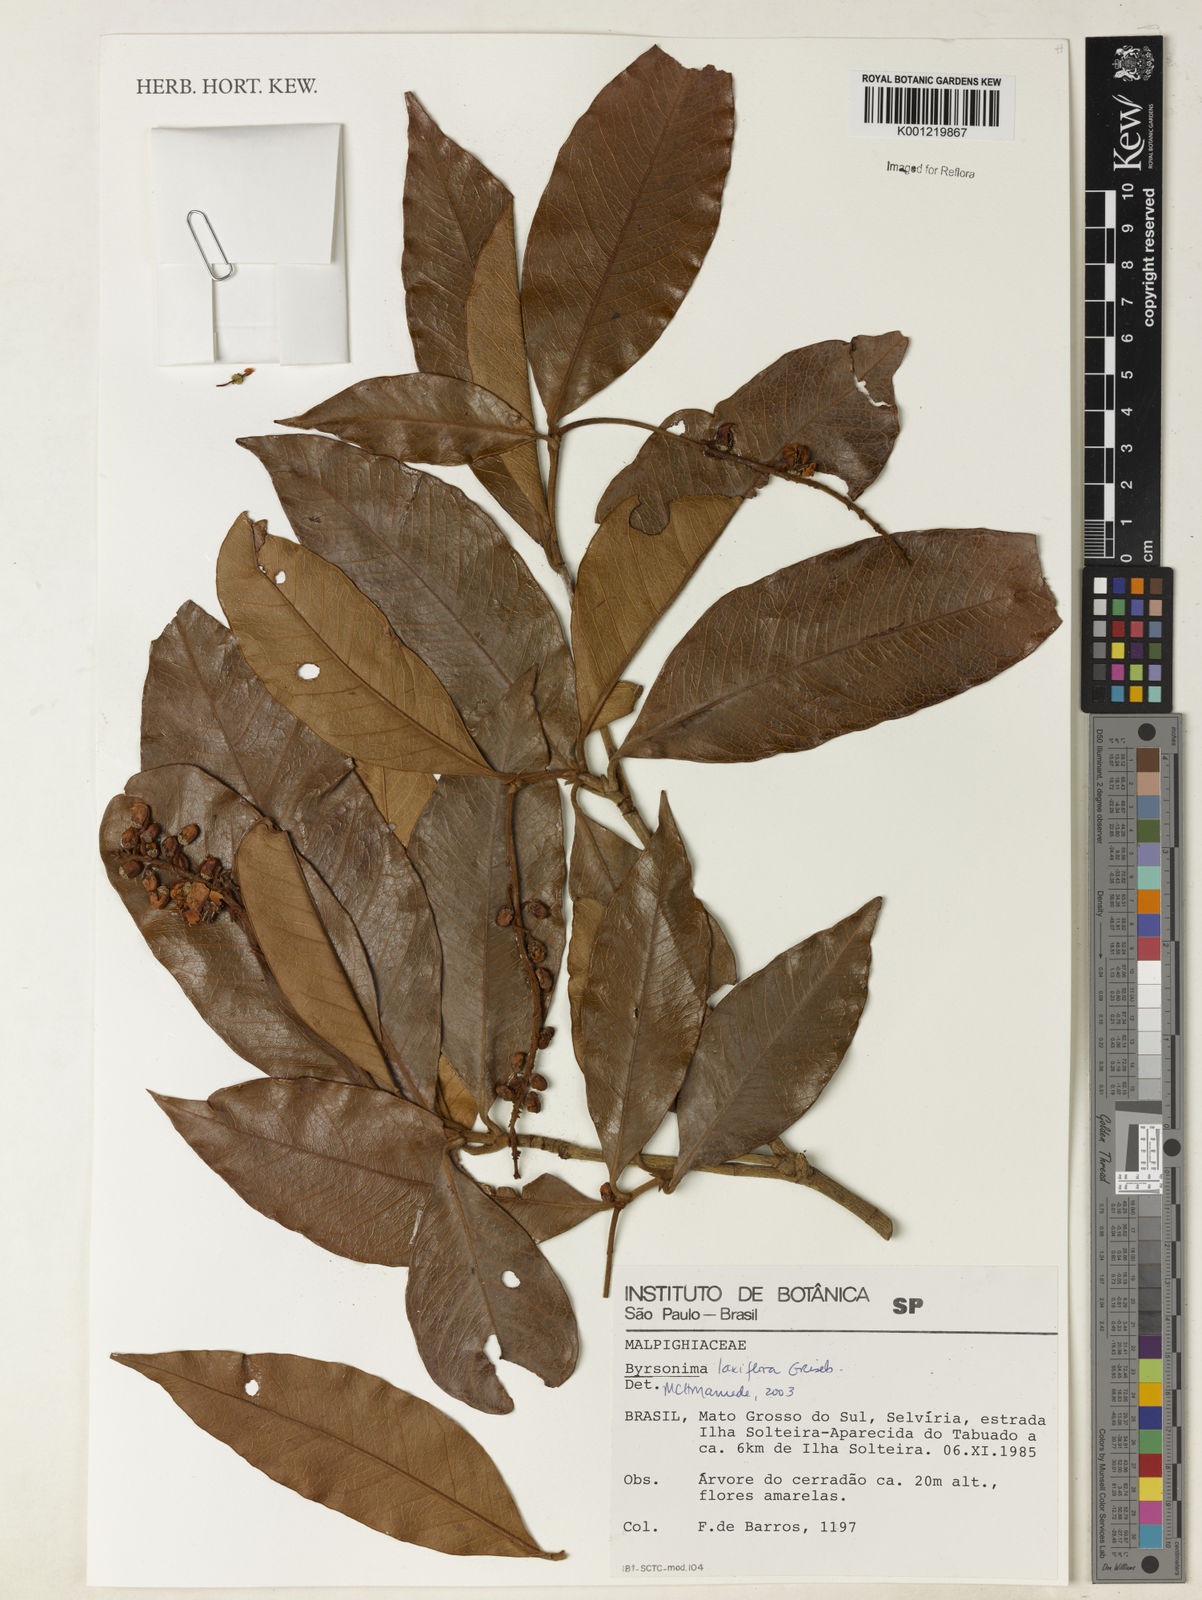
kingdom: Plantae
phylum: Tracheophyta
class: Magnoliopsida
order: Malpighiales
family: Malpighiaceae
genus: Byrsonima
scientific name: Byrsonima laxiflora
